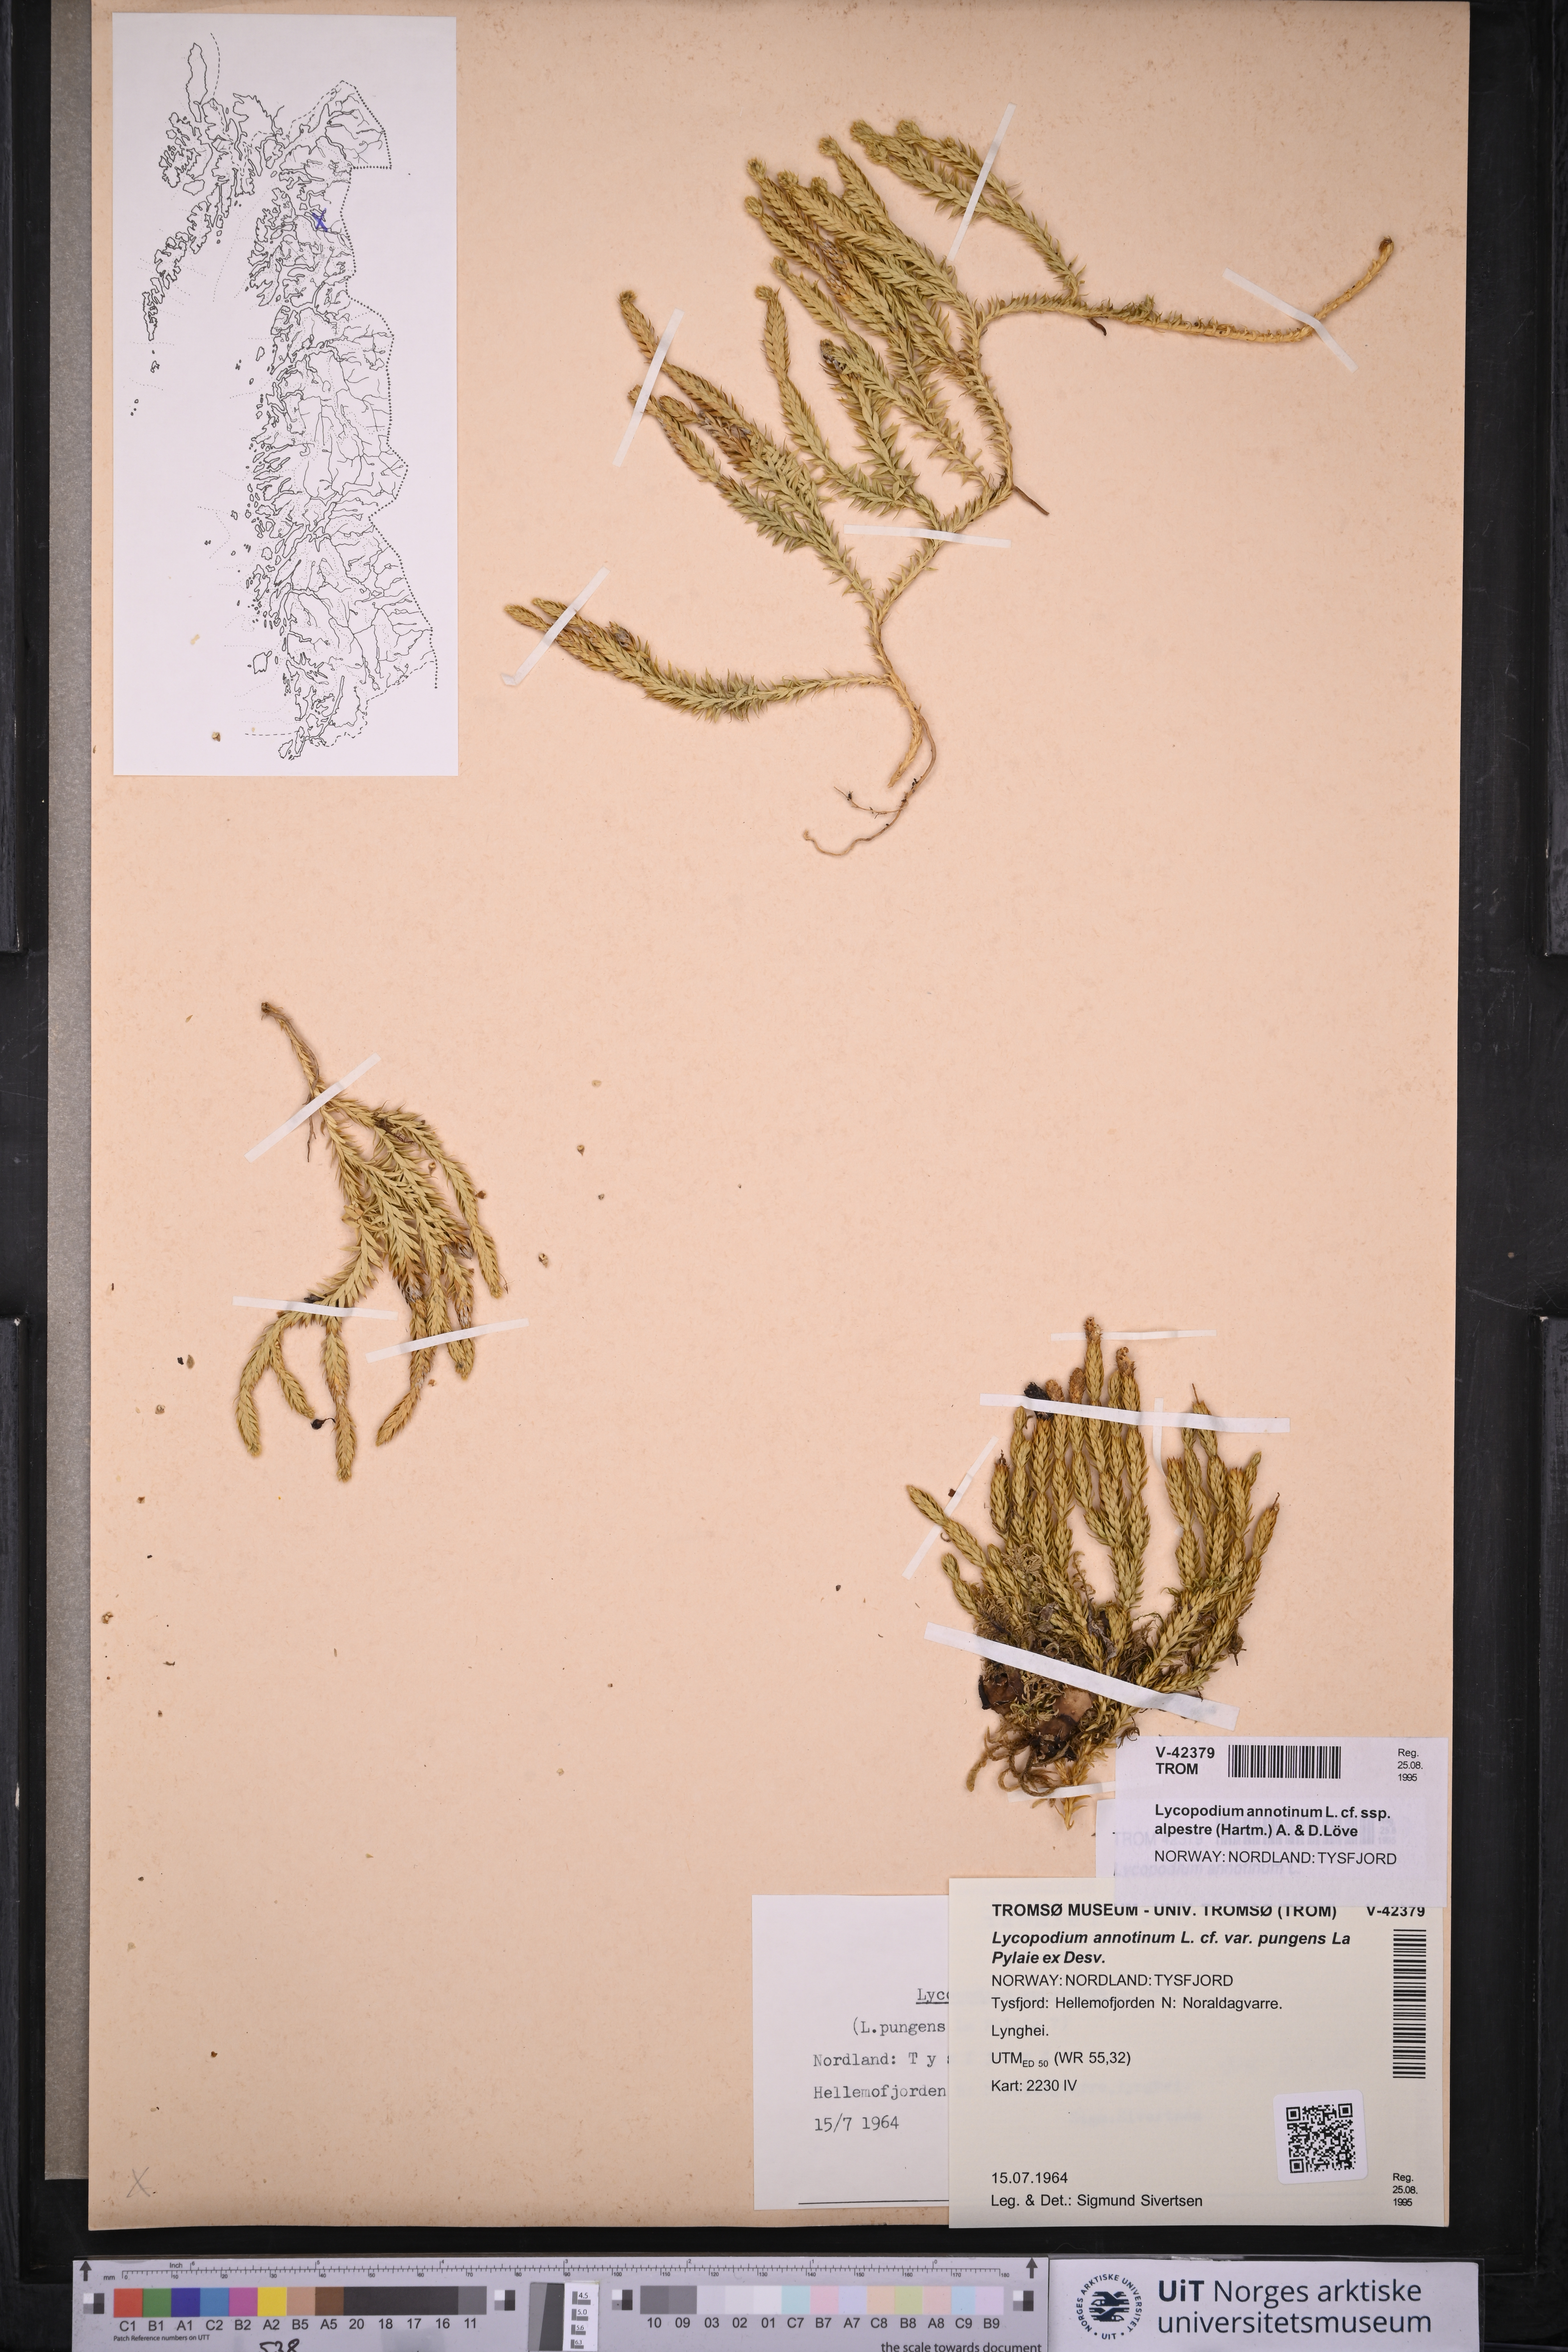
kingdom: Plantae
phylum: Tracheophyta
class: Lycopodiopsida
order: Lycopodiales
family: Lycopodiaceae
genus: Spinulum
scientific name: Spinulum annotinum
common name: Interrupted club-moss
